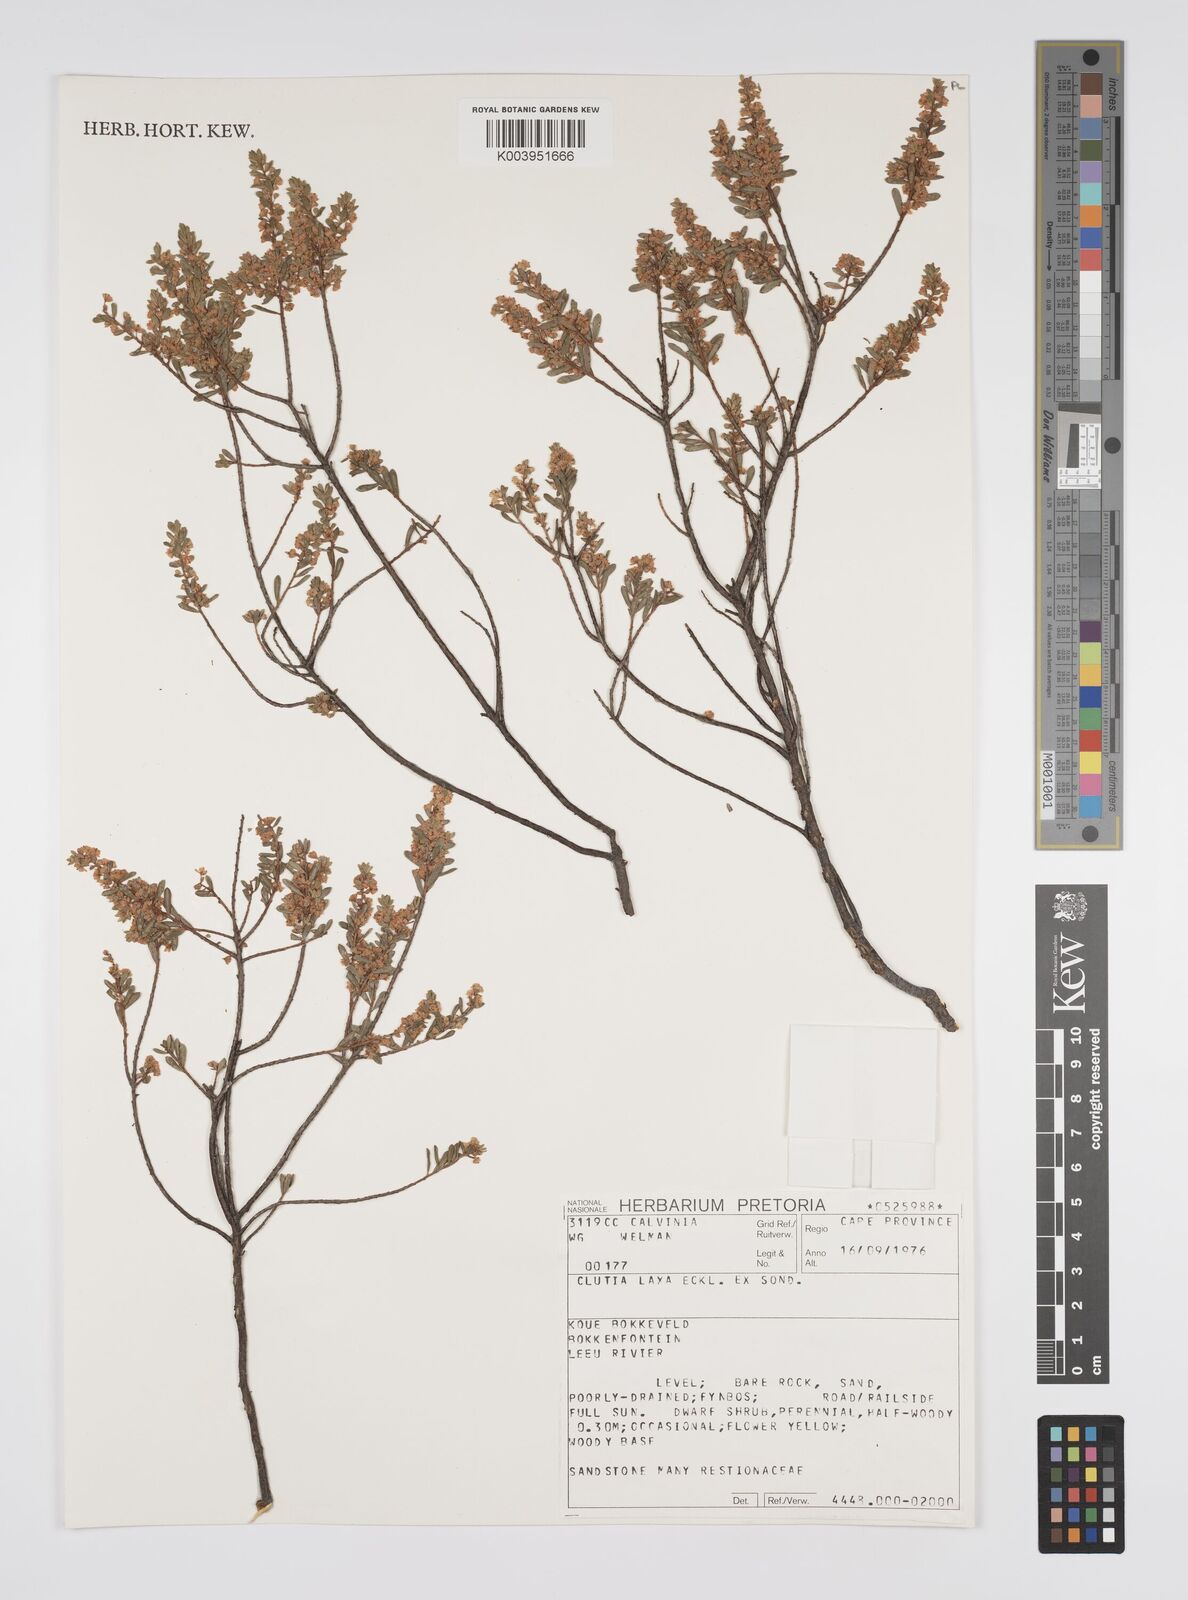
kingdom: Plantae
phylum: Tracheophyta
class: Magnoliopsida
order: Malpighiales
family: Peraceae
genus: Clutia
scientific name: Clutia laxa
